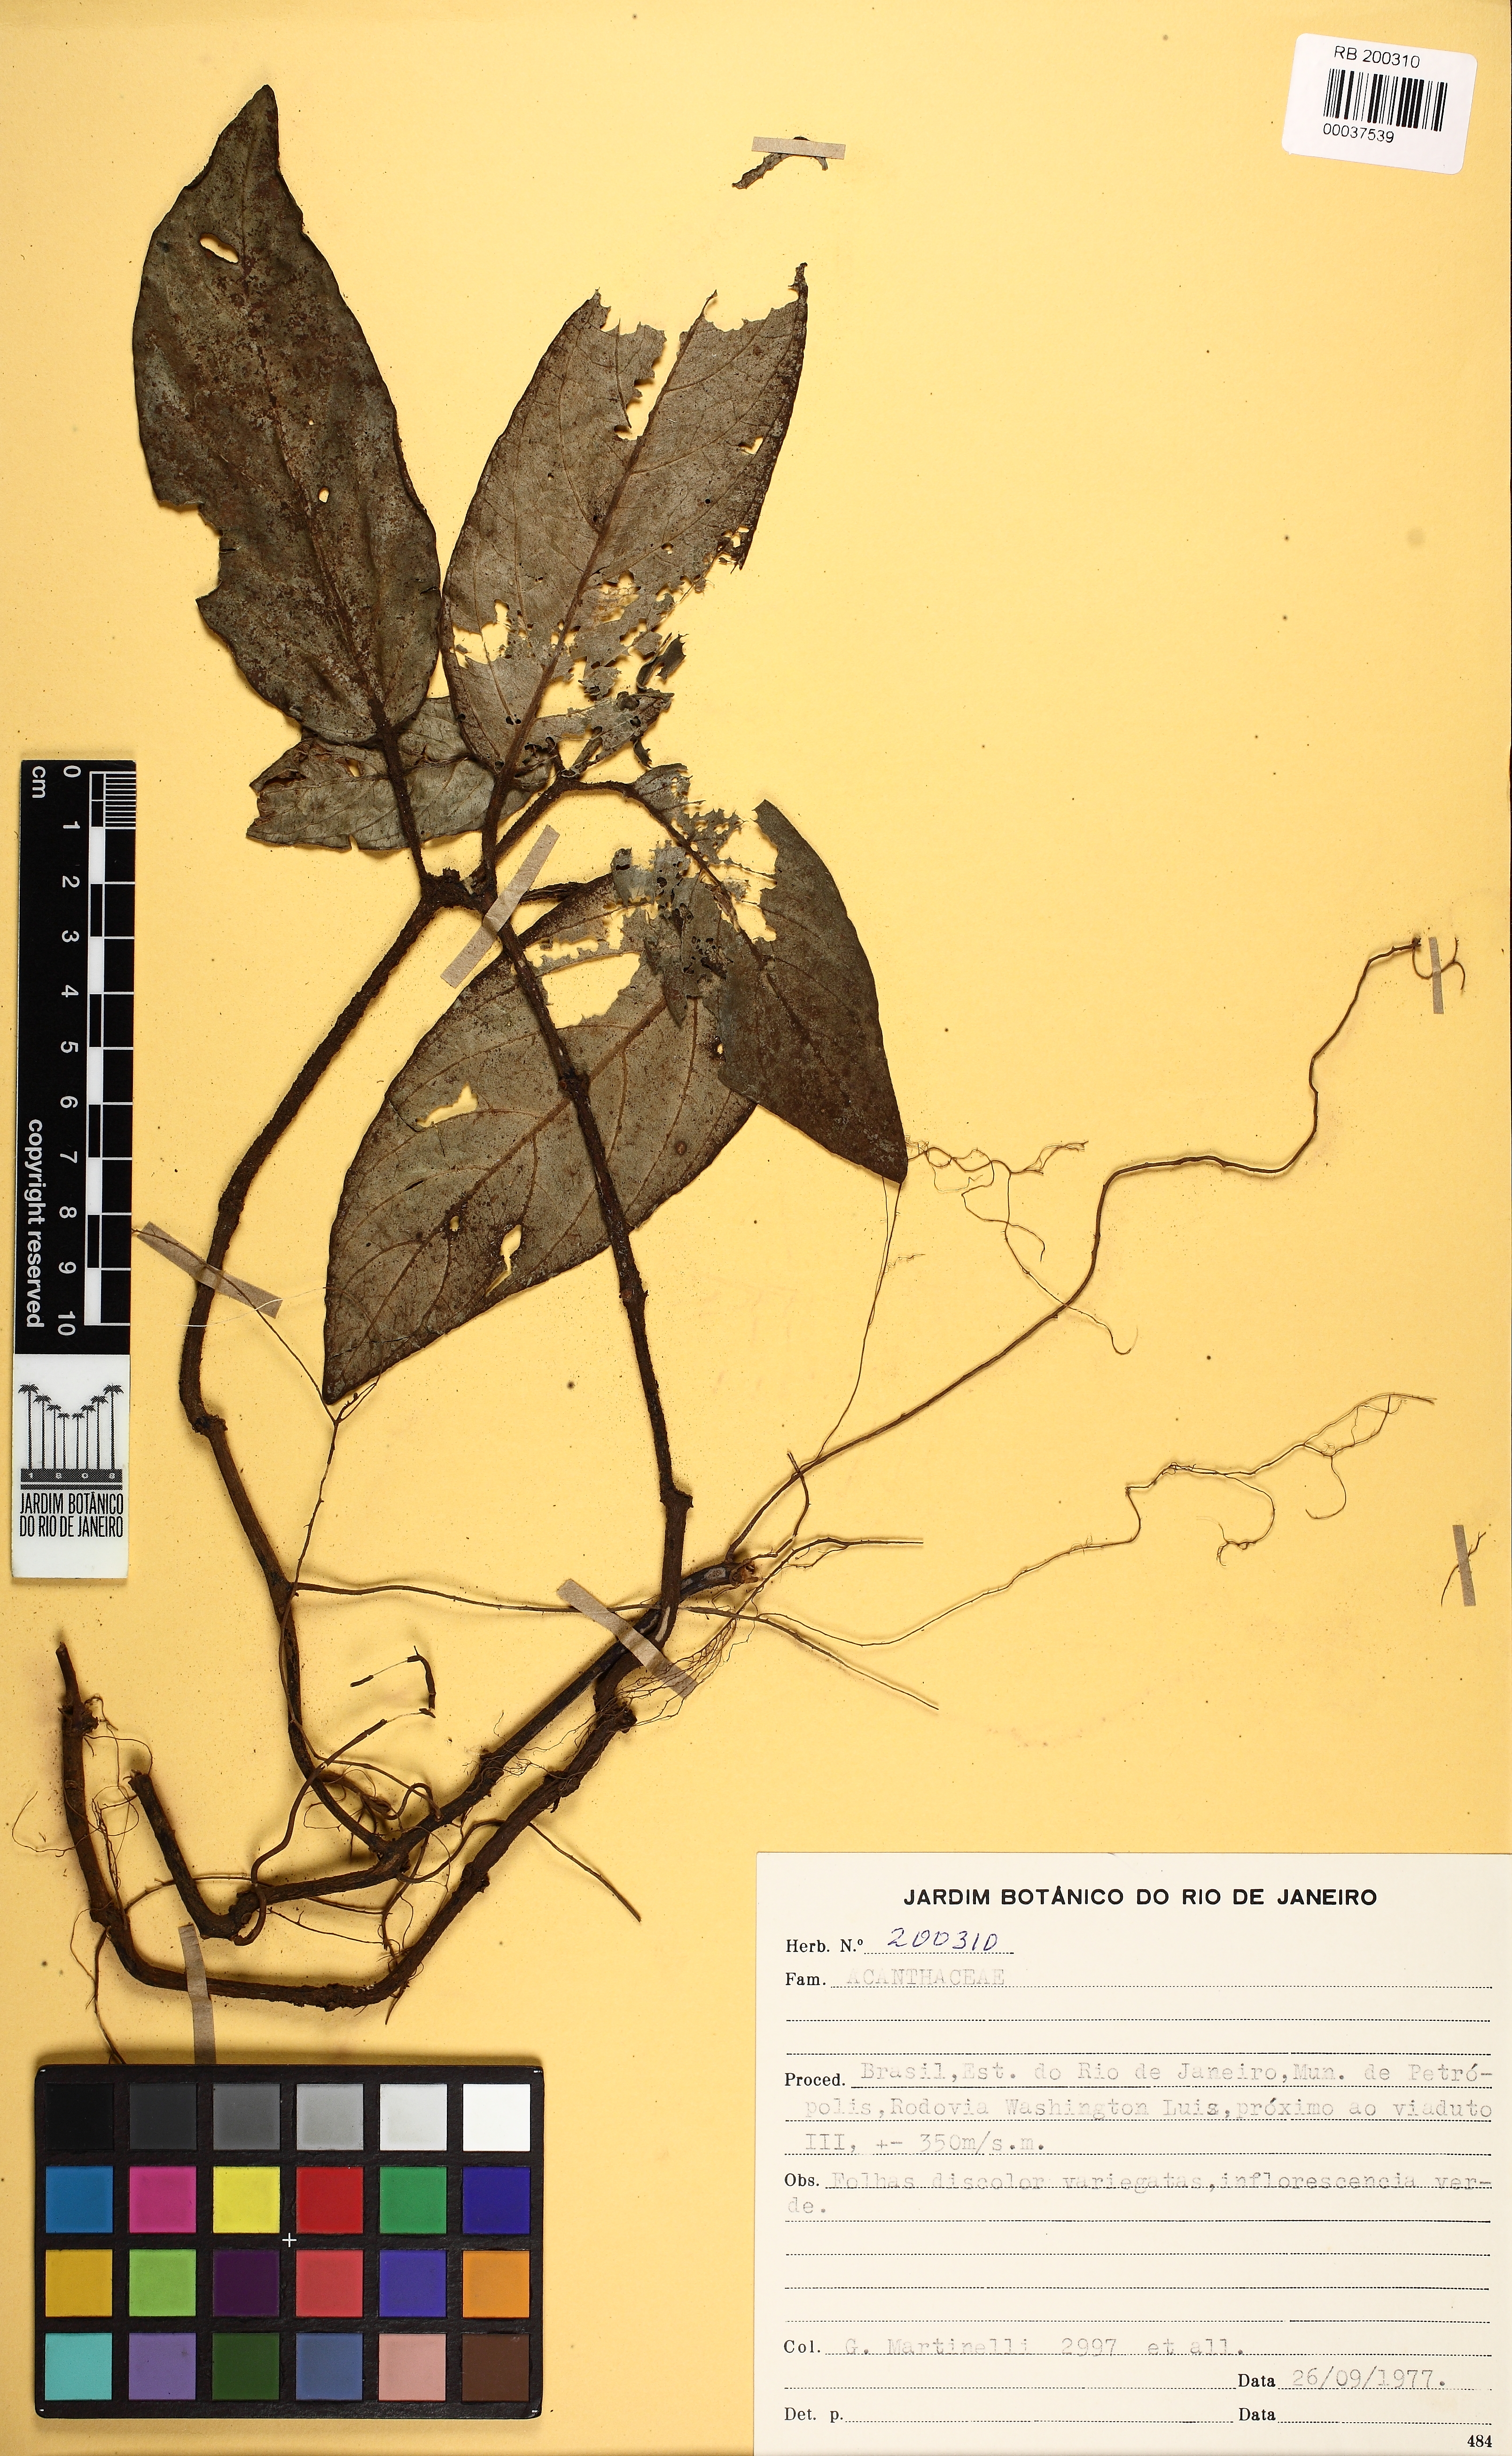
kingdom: Plantae
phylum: Tracheophyta
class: Magnoliopsida
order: Lamiales
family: Acanthaceae
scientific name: Acanthaceae
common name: Acanthaceae
